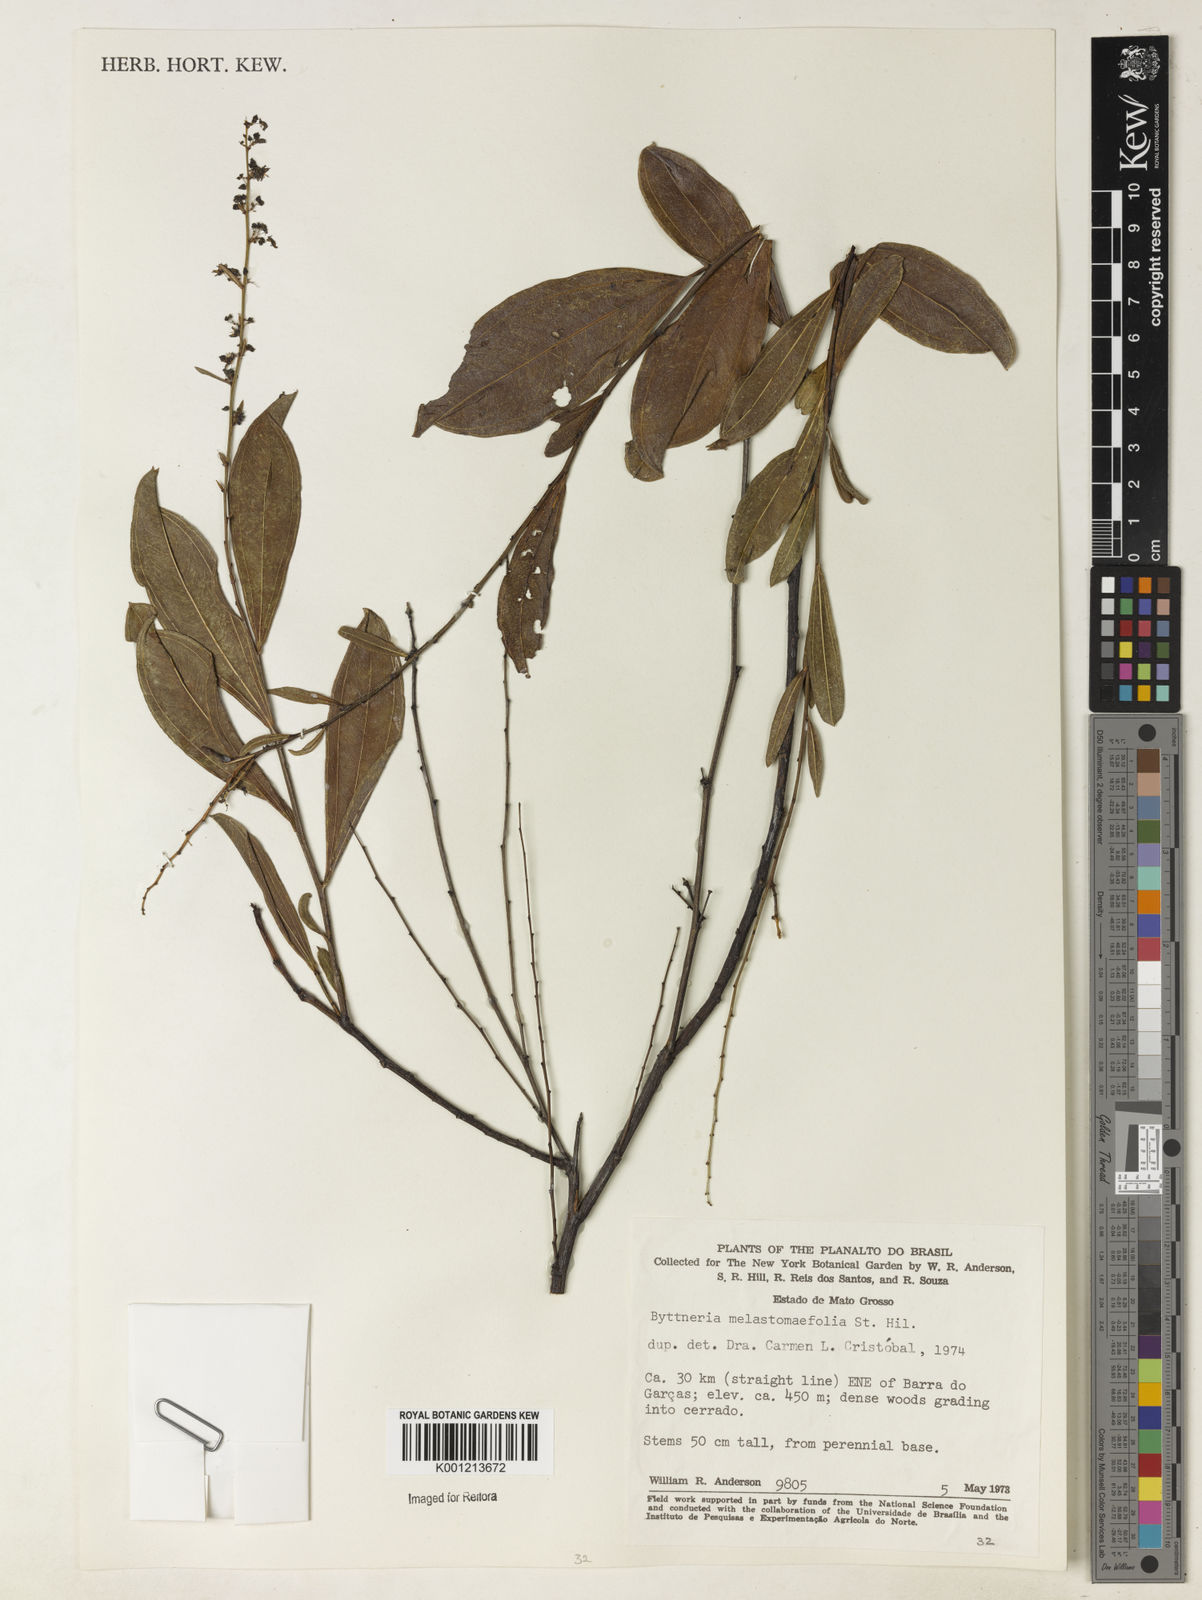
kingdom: Plantae
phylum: Tracheophyta
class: Magnoliopsida
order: Malvales
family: Malvaceae
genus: Byttneria
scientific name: Byttneria melastomifolia
